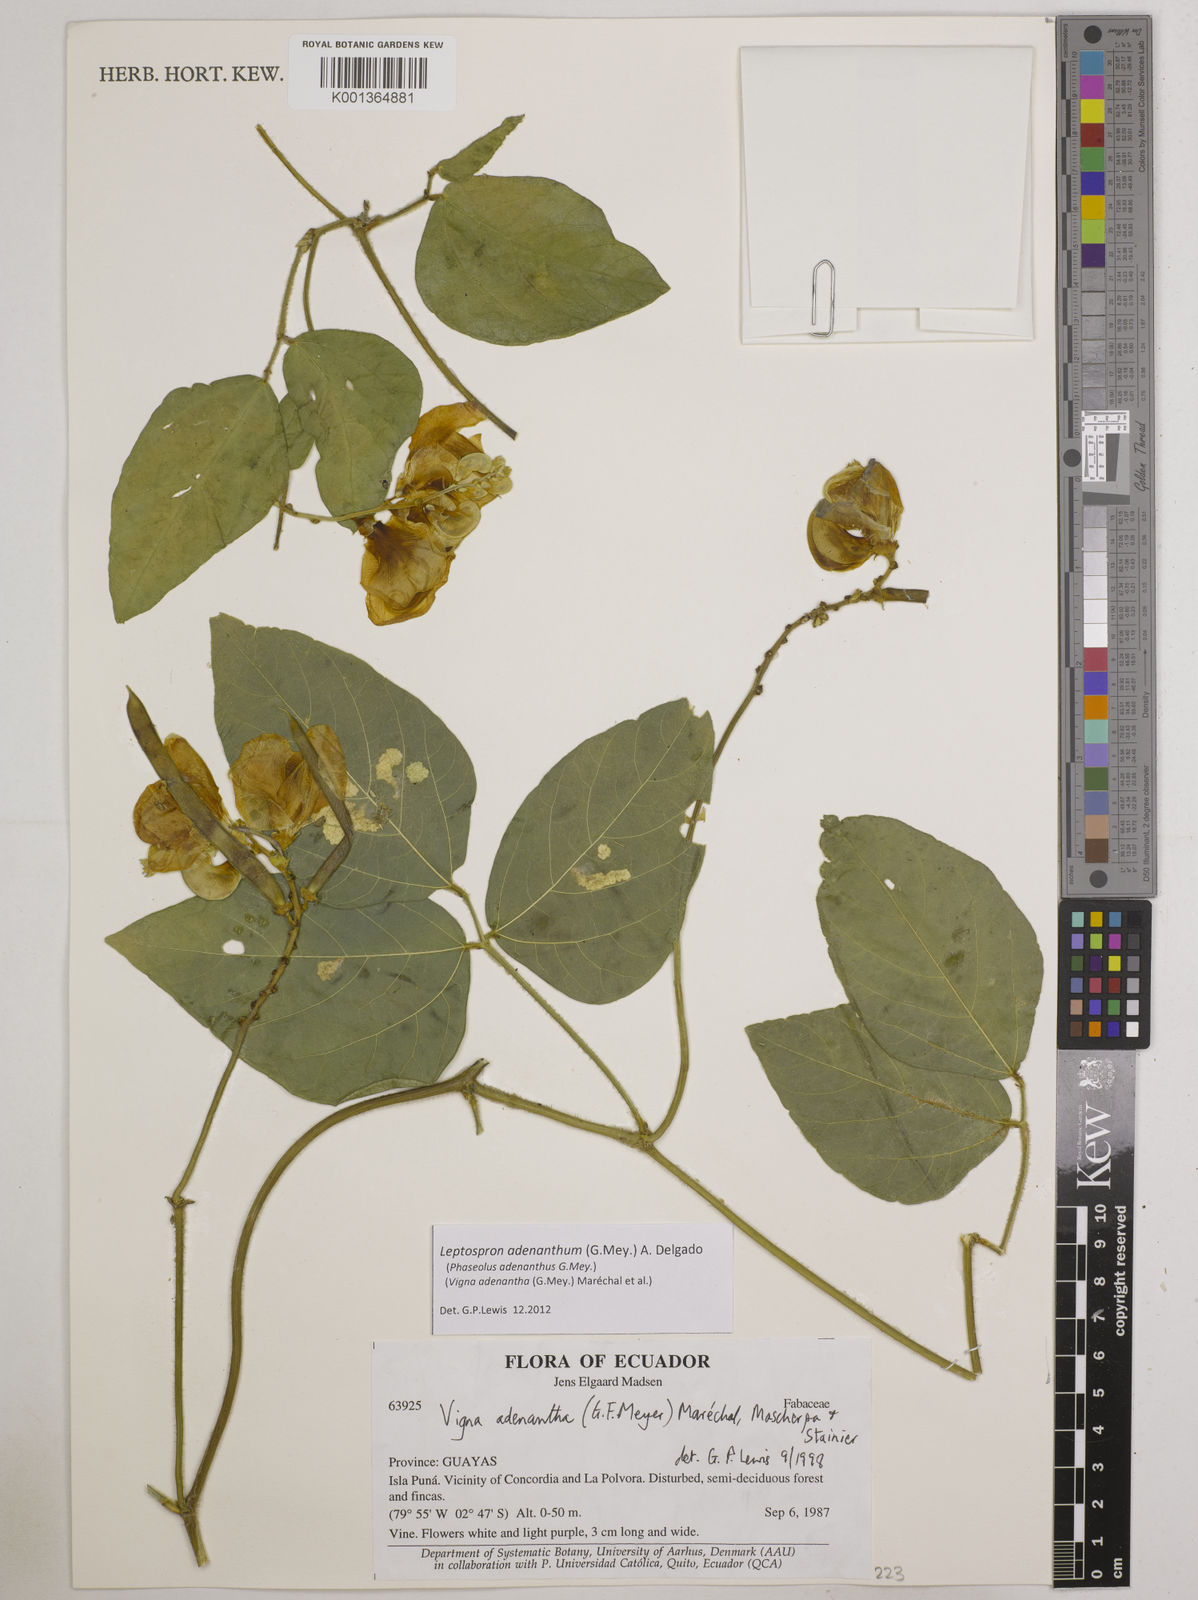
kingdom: Plantae
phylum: Tracheophyta
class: Magnoliopsida
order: Fabales
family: Fabaceae
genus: Leptospron
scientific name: Leptospron adenanthum
